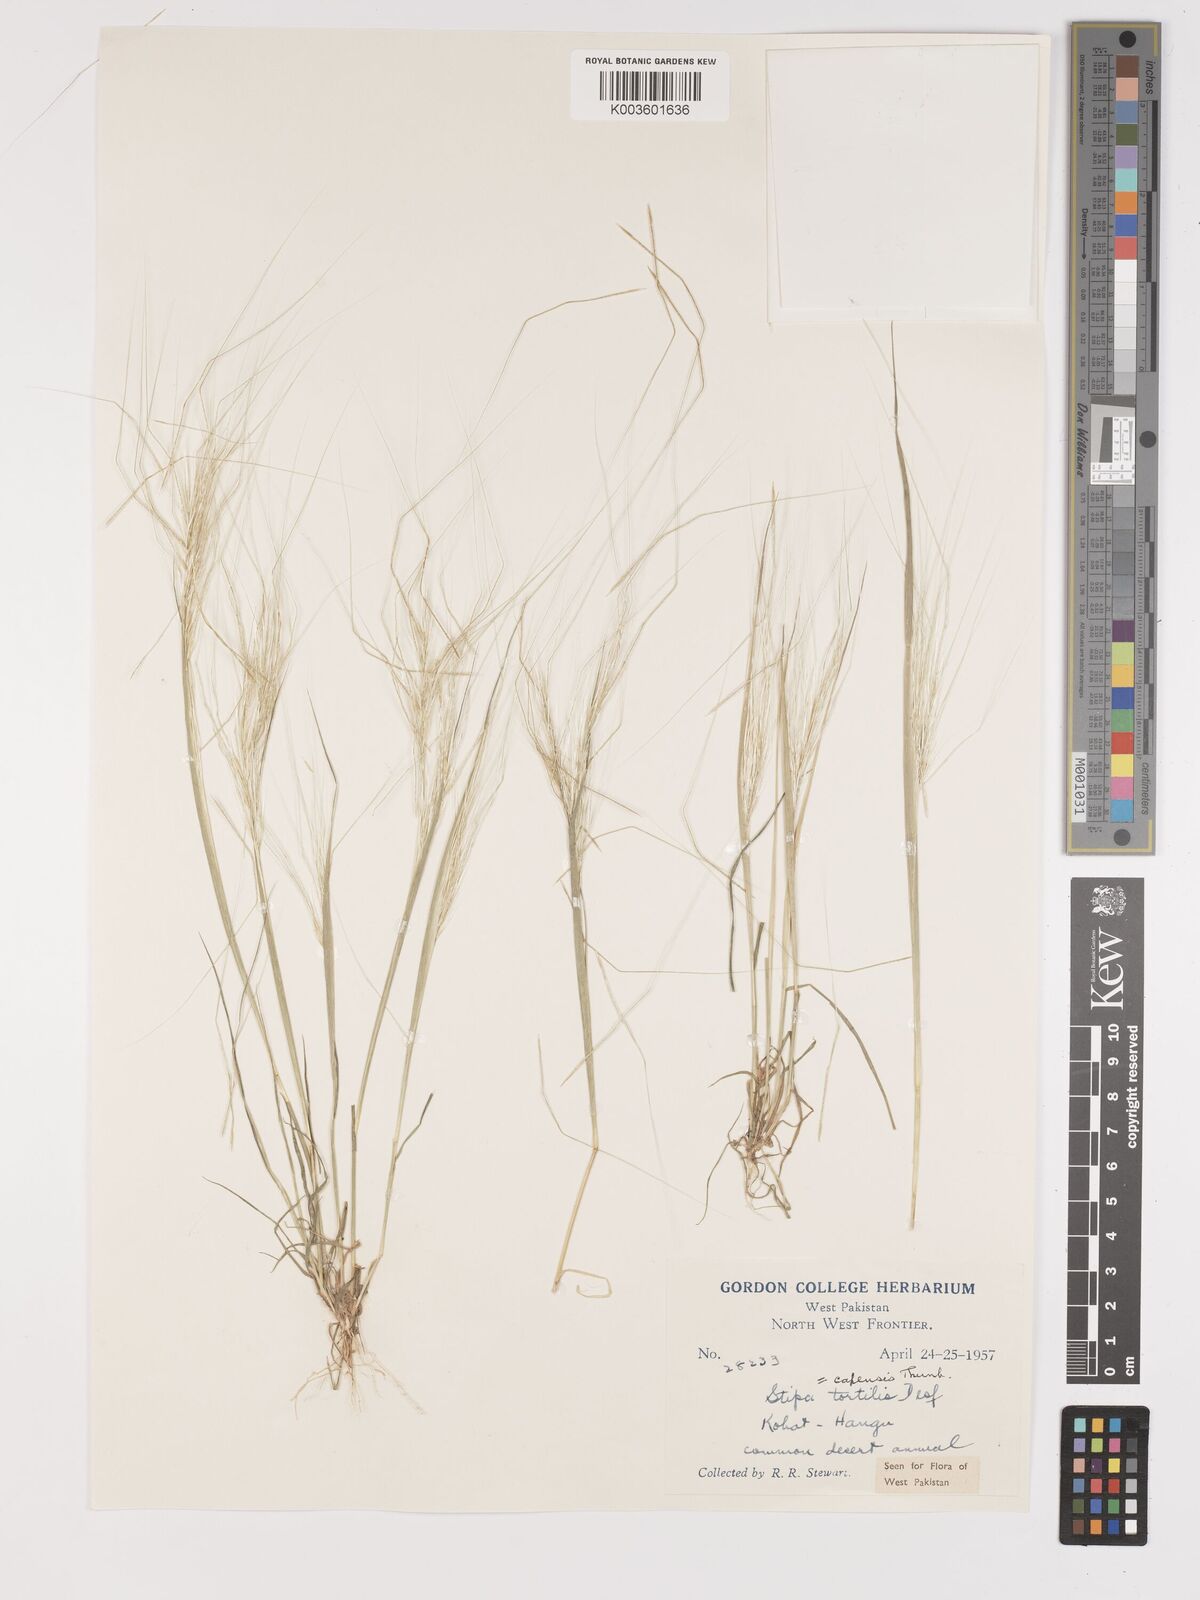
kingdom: Plantae
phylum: Tracheophyta
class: Liliopsida
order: Poales
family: Poaceae
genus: Stipellula
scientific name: Stipellula capensis
